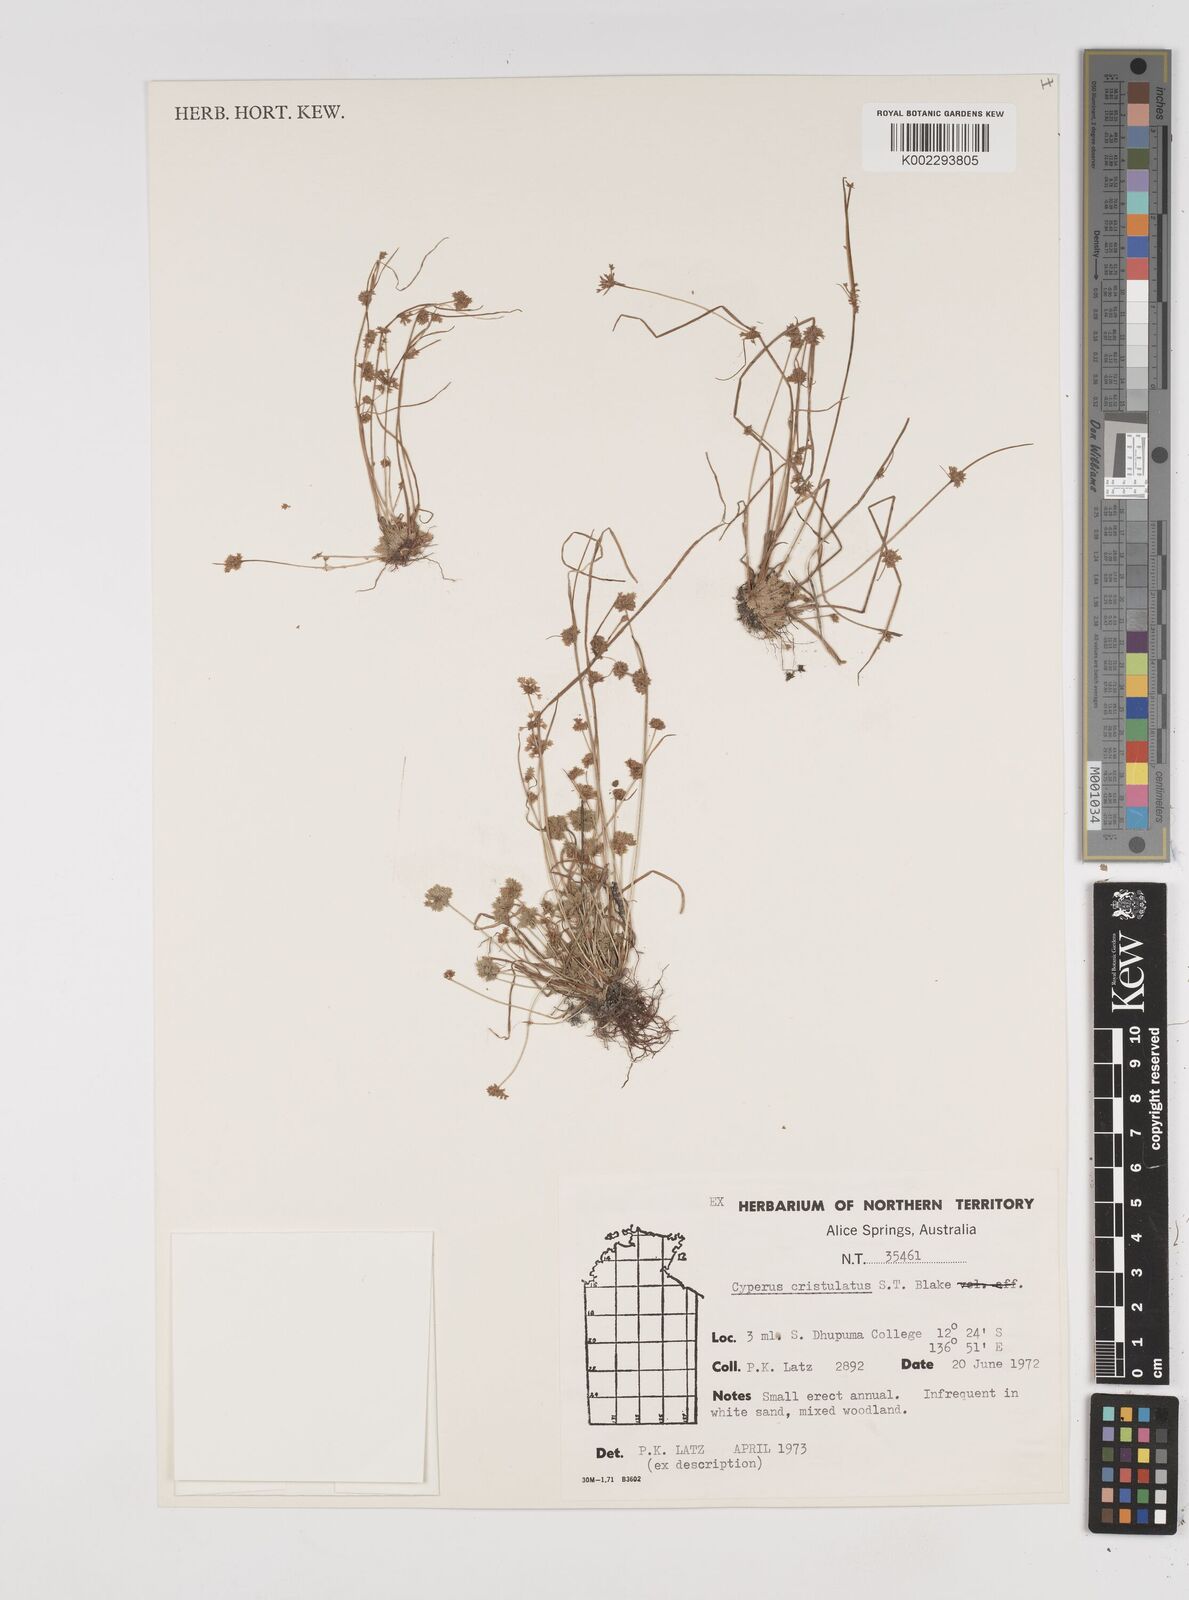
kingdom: Plantae
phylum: Tracheophyta
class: Liliopsida
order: Poales
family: Cyperaceae
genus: Cyperus
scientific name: Cyperus cristulatus
